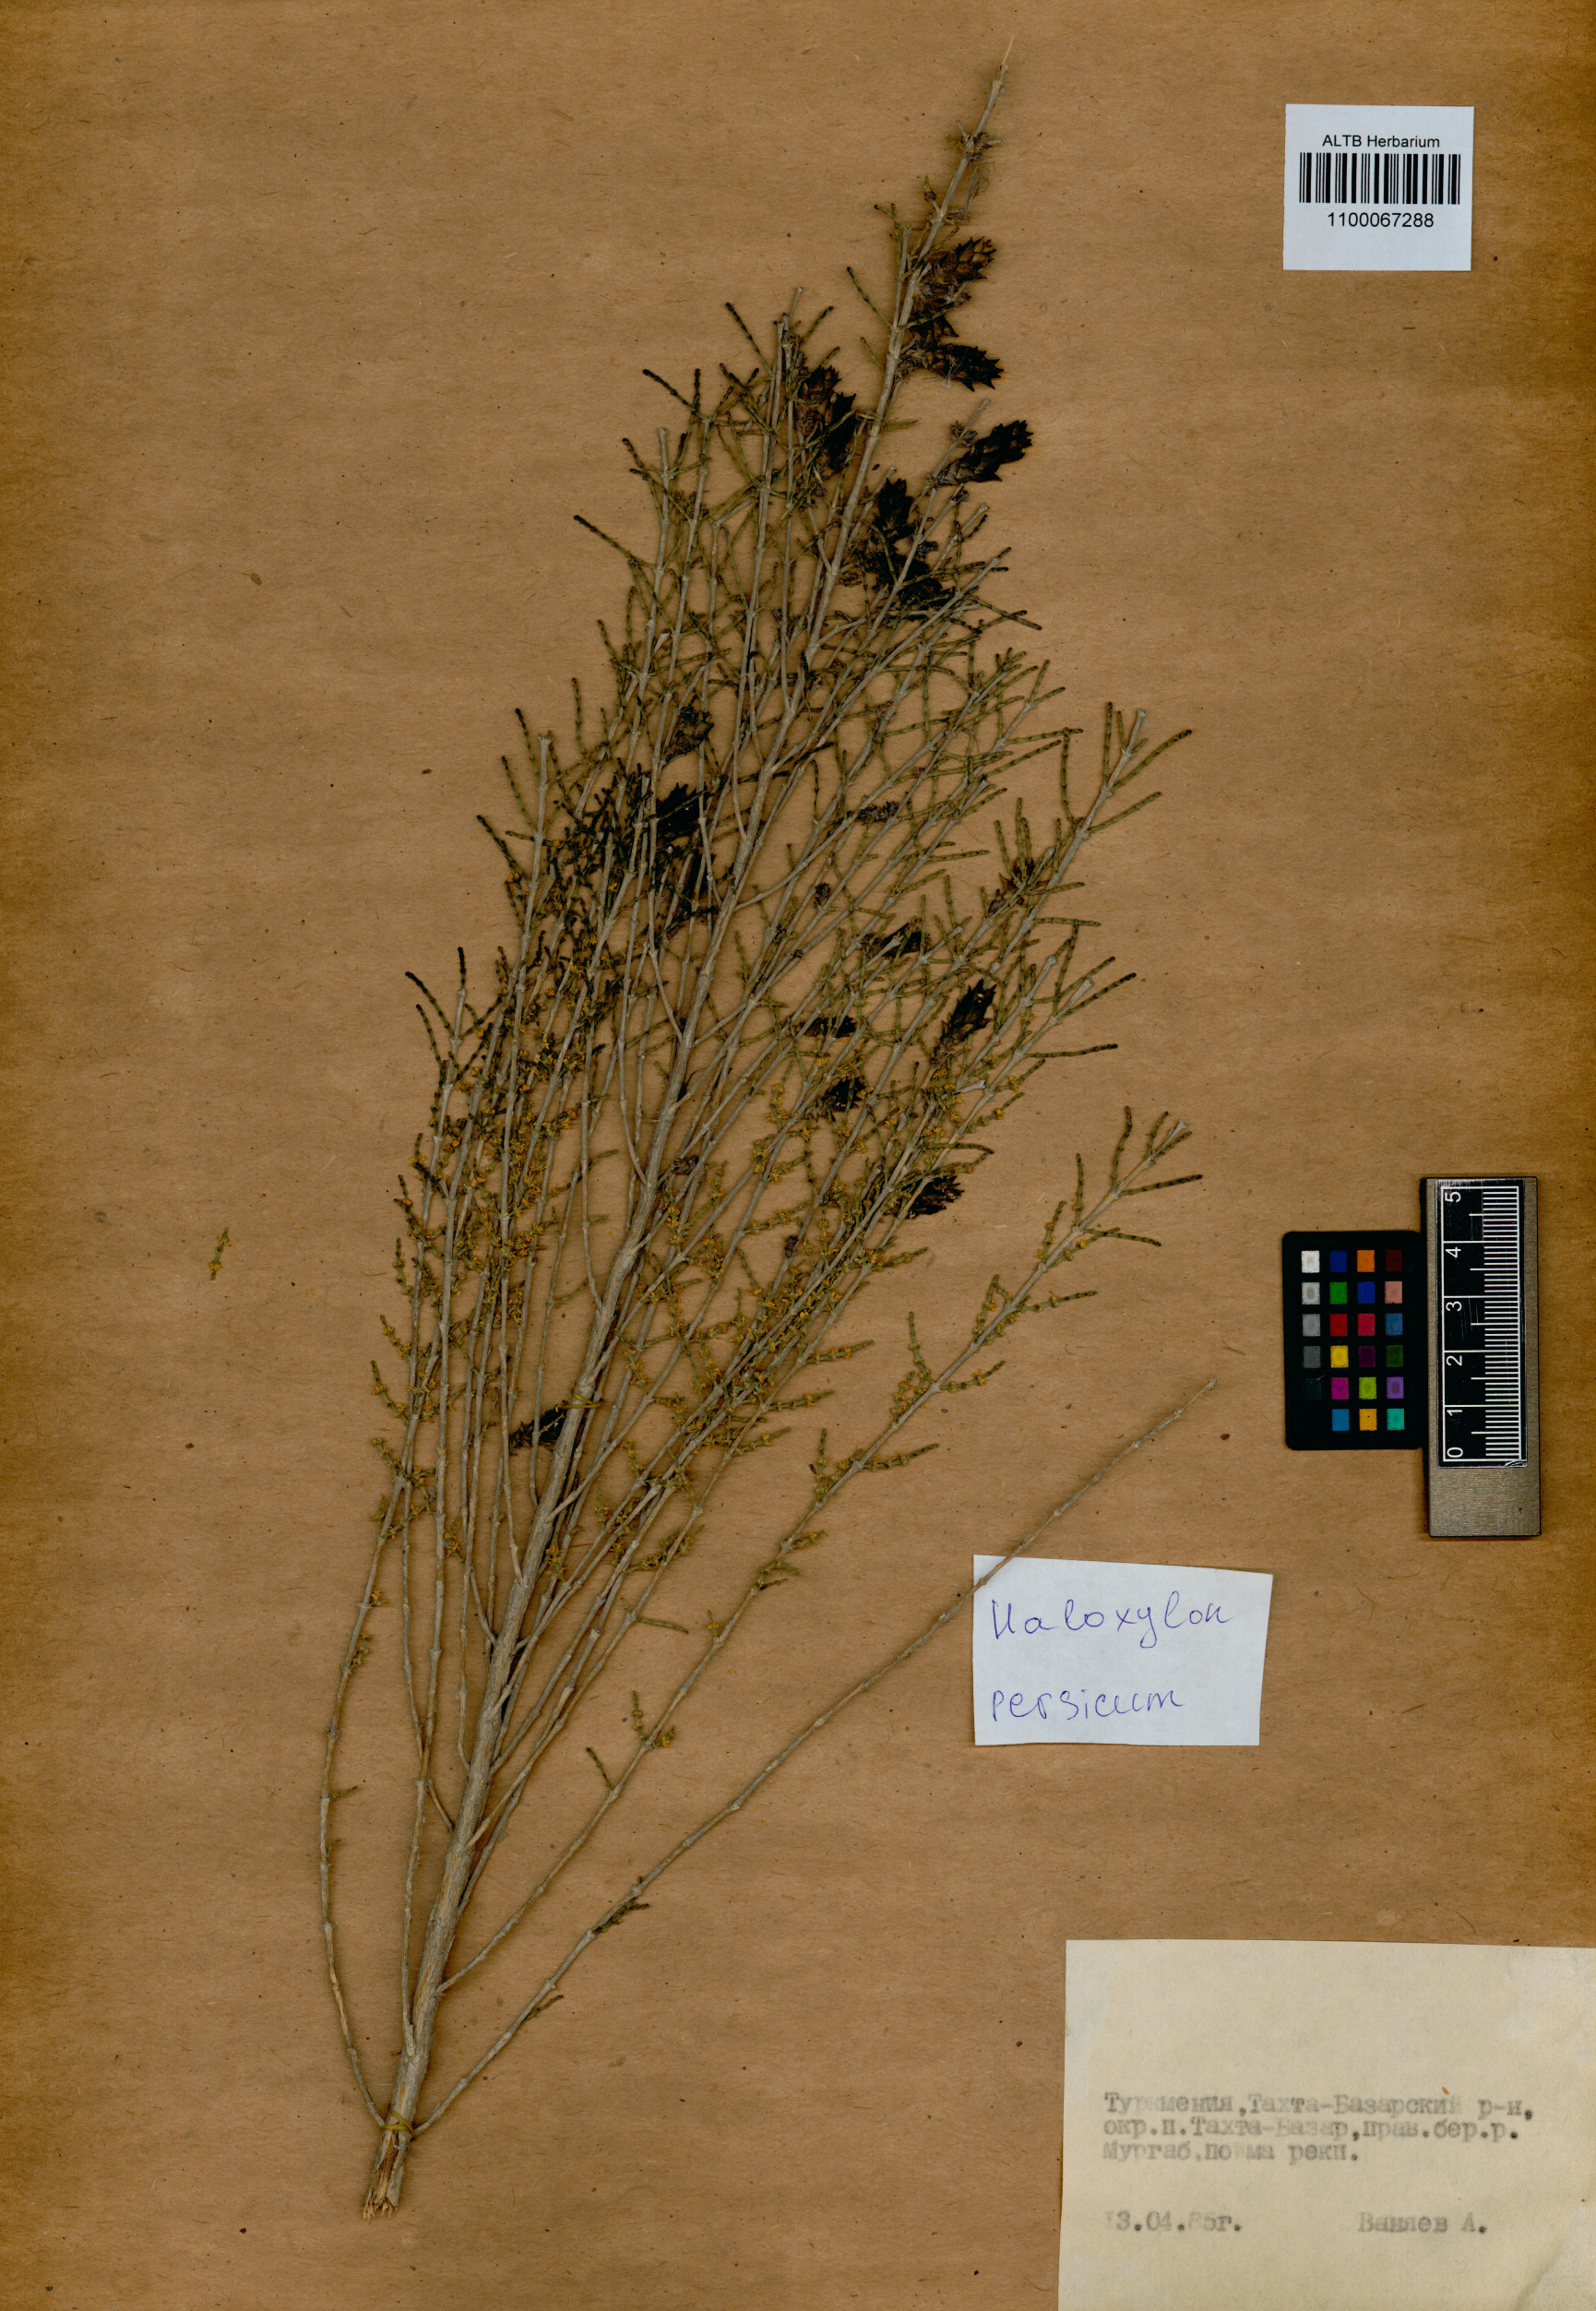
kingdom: Plantae
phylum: Tracheophyta
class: Magnoliopsida
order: Caryophyllales
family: Amaranthaceae
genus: Haloxylon
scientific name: Haloxylon persicum
